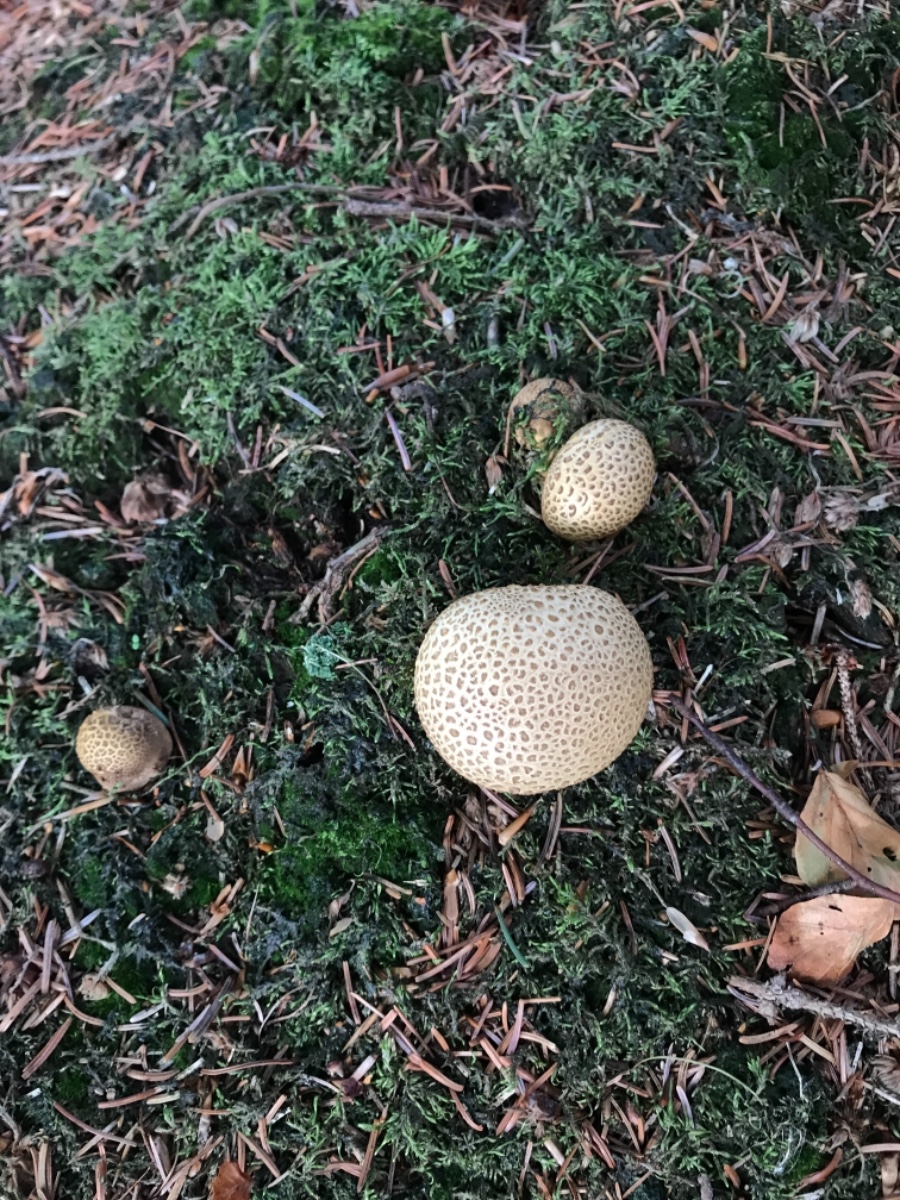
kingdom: Fungi
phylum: Basidiomycota
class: Agaricomycetes
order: Boletales
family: Sclerodermataceae
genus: Scleroderma
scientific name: Scleroderma citrinum
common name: almindelig bruskbold
